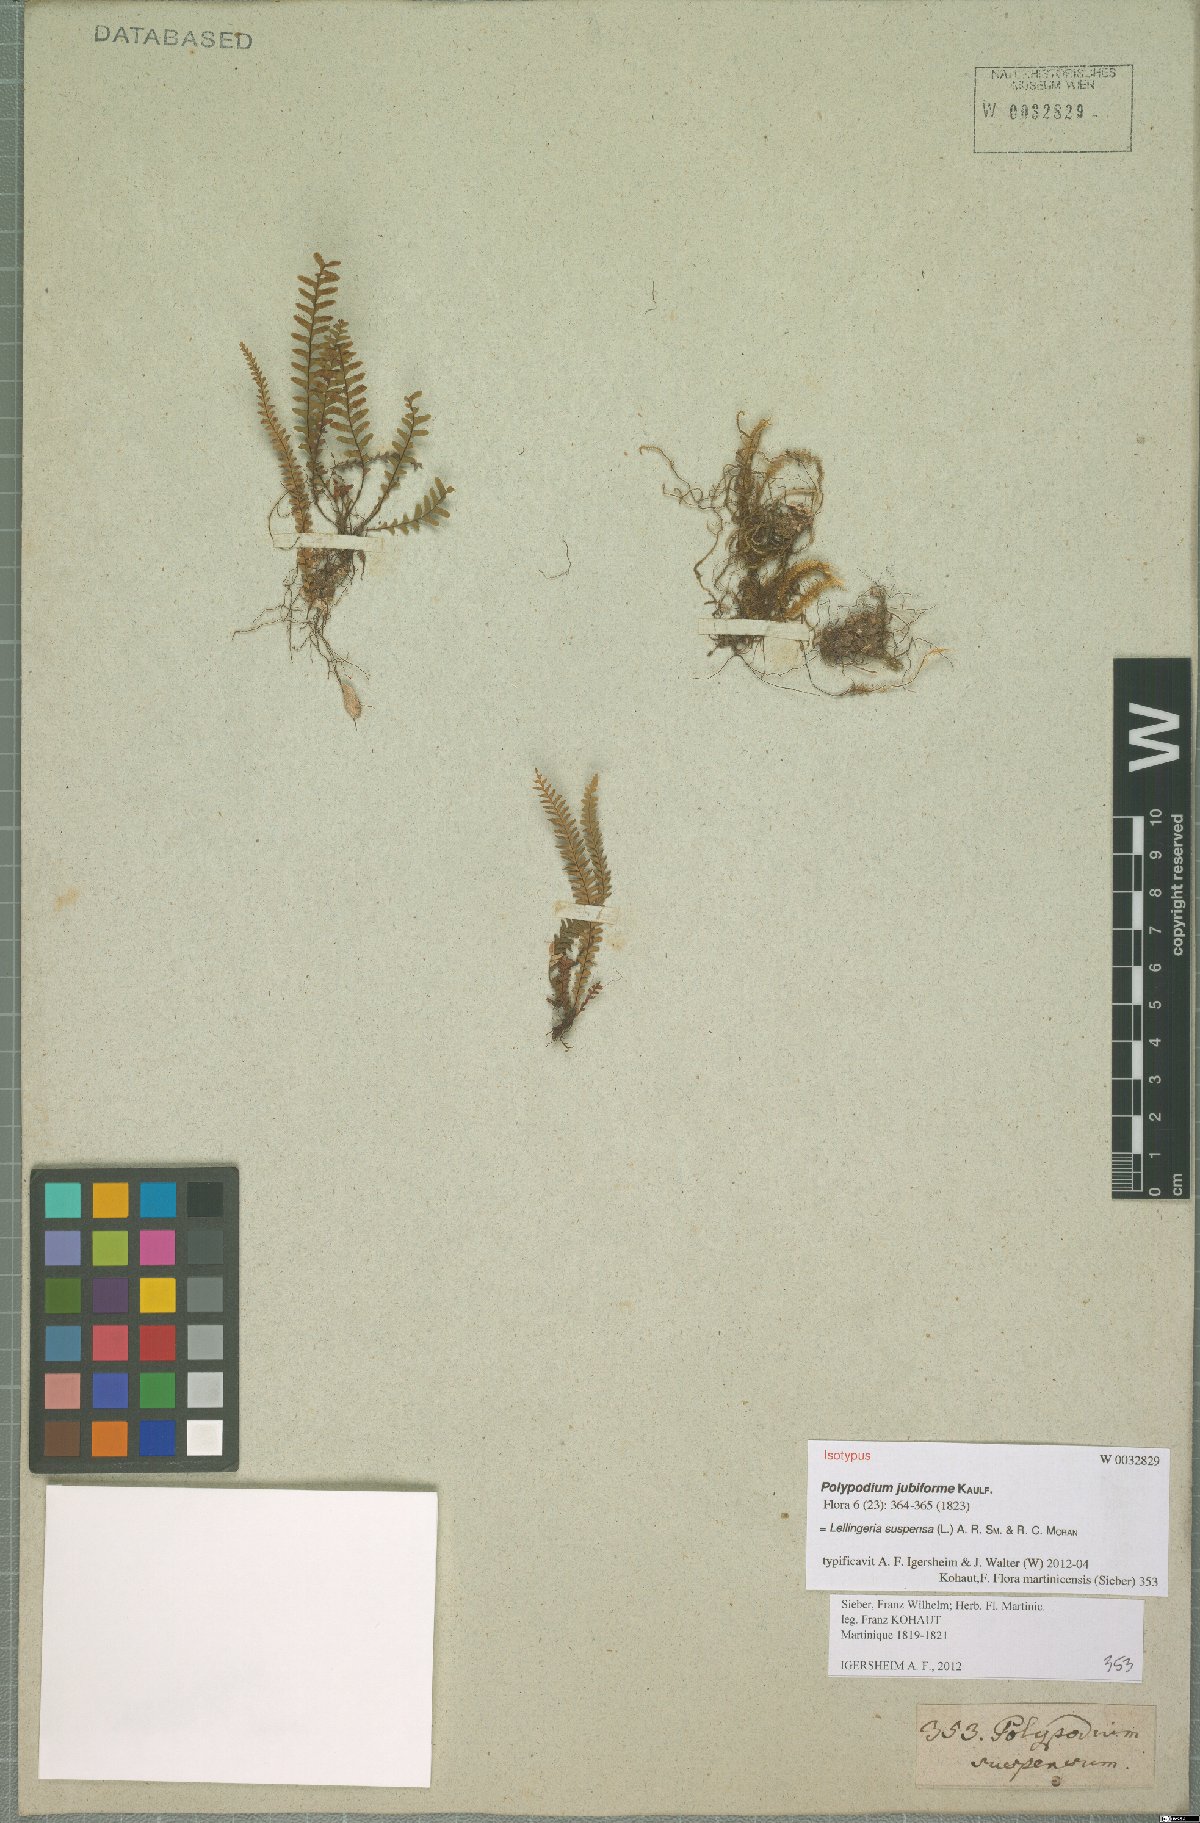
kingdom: Plantae
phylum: Tracheophyta
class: Polypodiopsida
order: Polypodiales
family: Polypodiaceae
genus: Lellingeria
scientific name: Lellingeria suspensa
